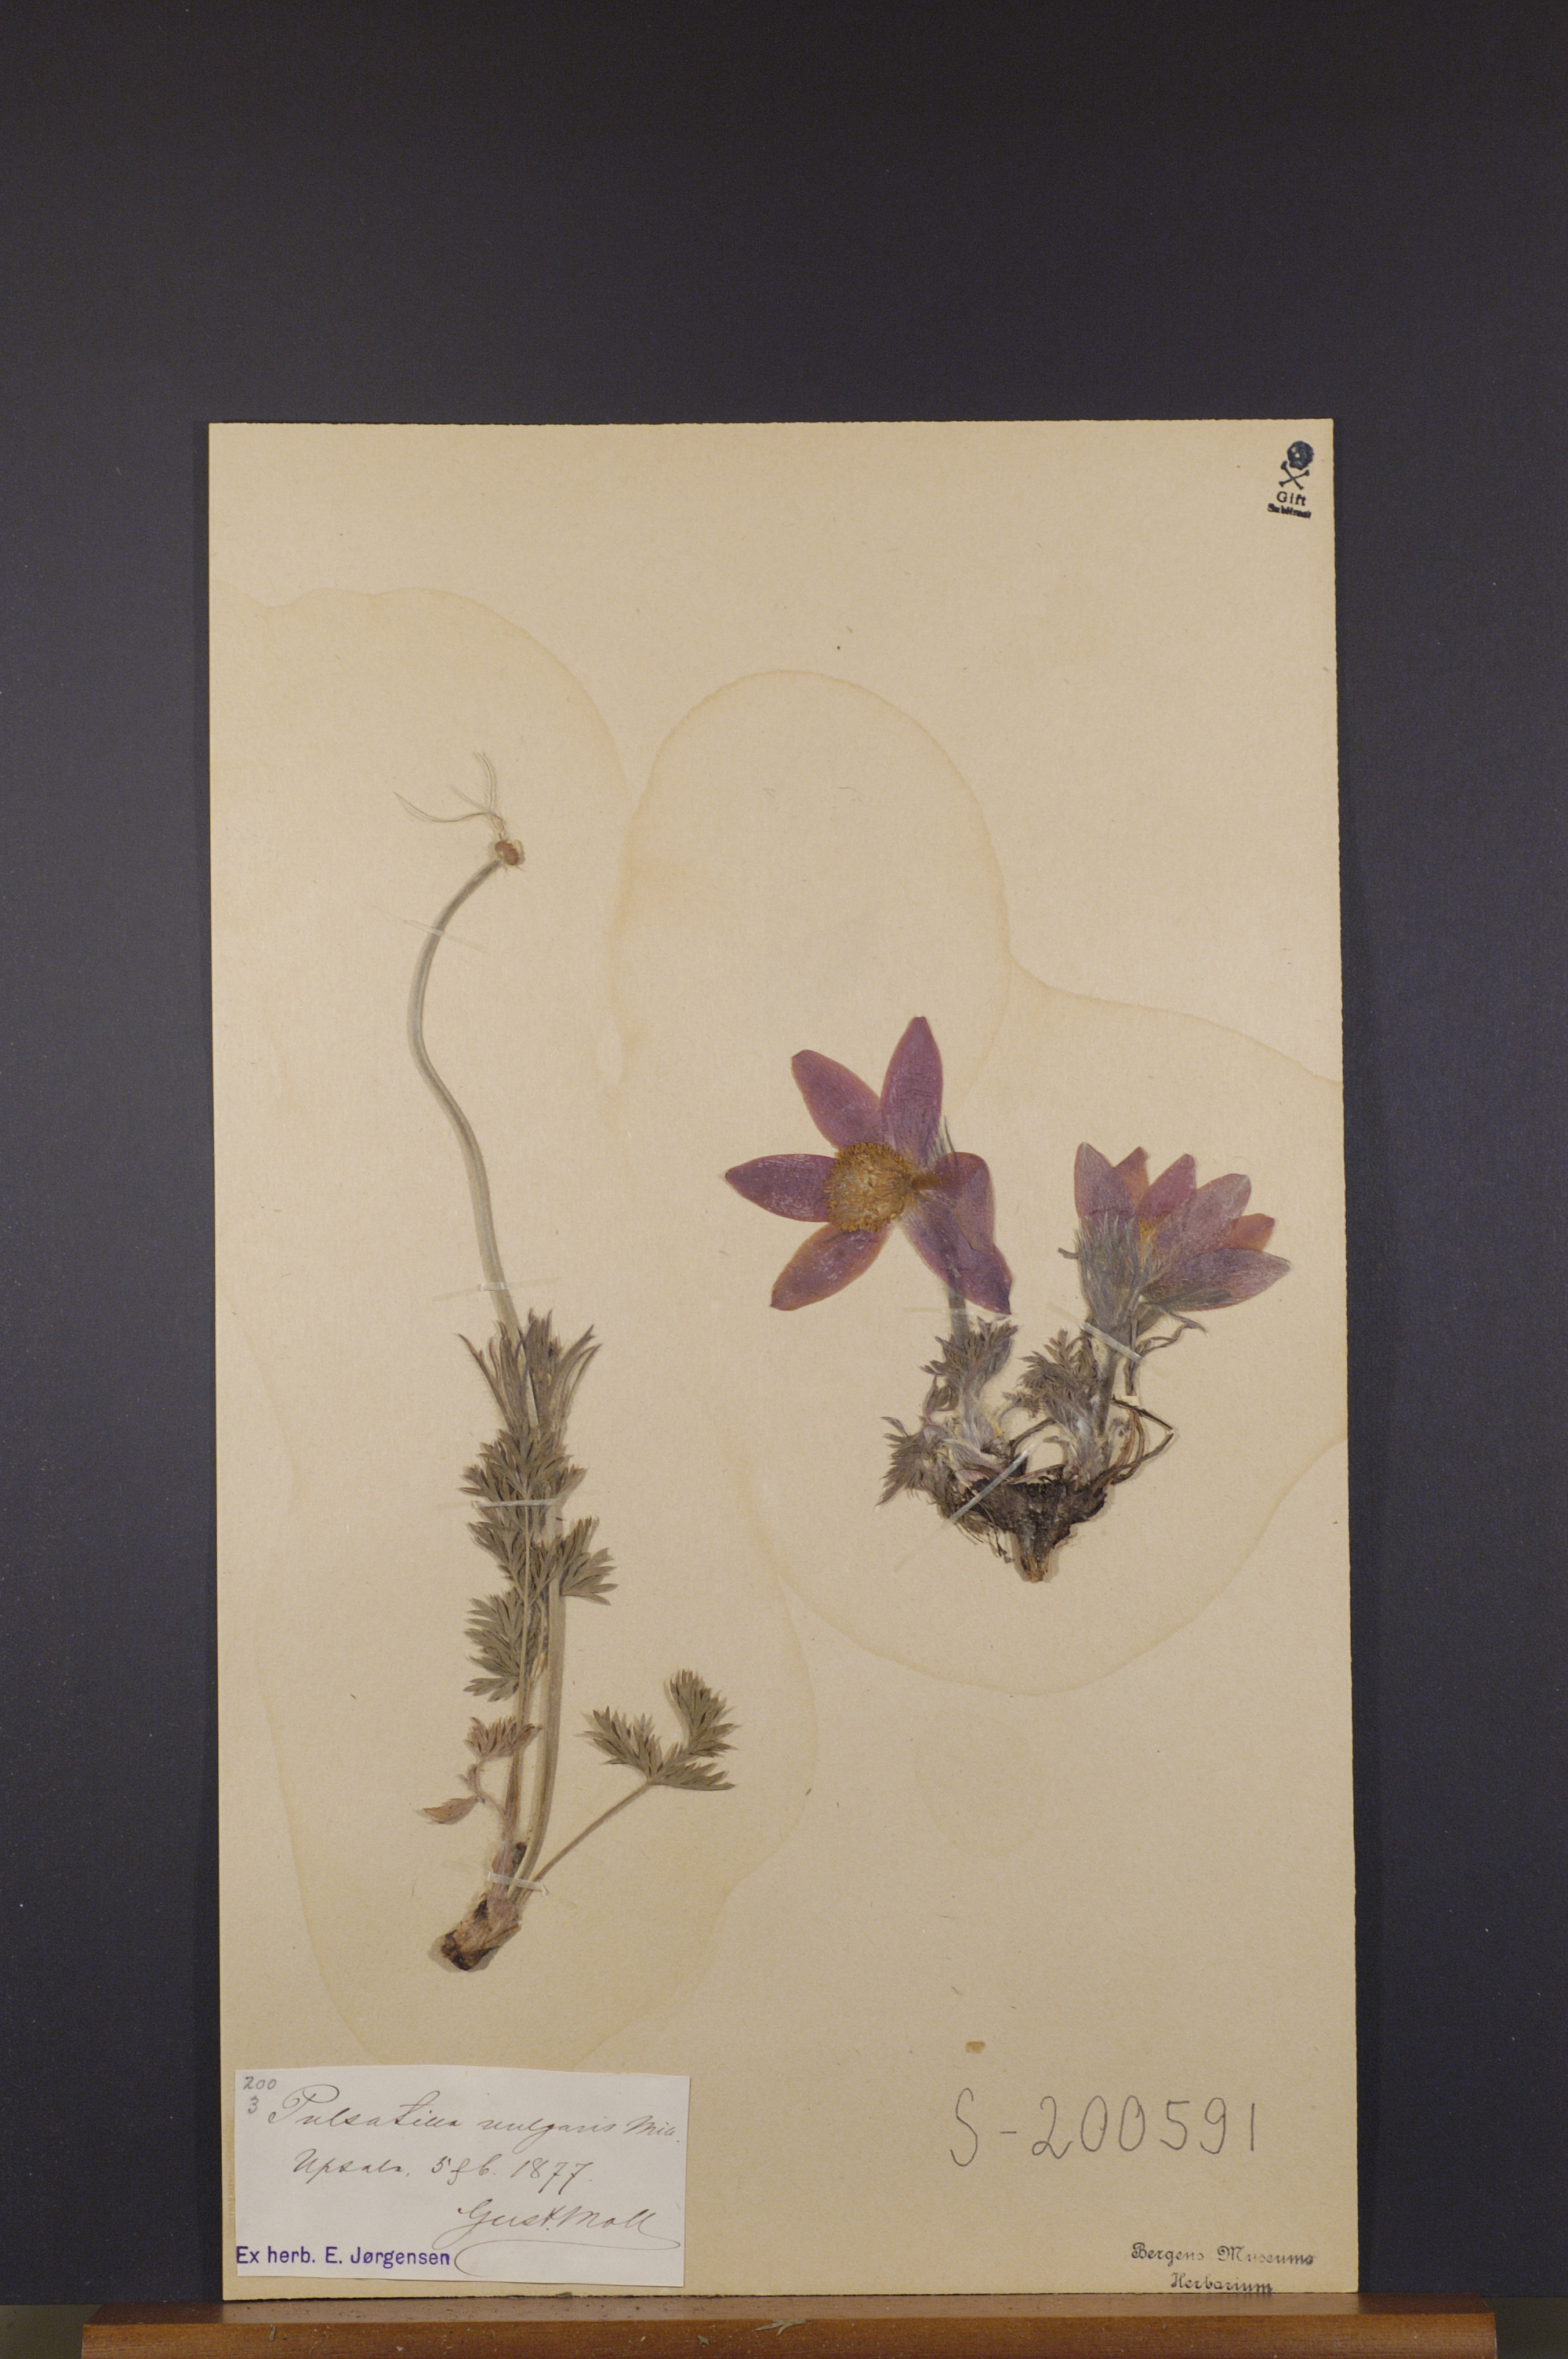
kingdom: Plantae
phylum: Tracheophyta
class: Magnoliopsida
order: Ranunculales
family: Ranunculaceae
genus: Pulsatilla
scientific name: Pulsatilla vulgaris
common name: Pasqueflower
